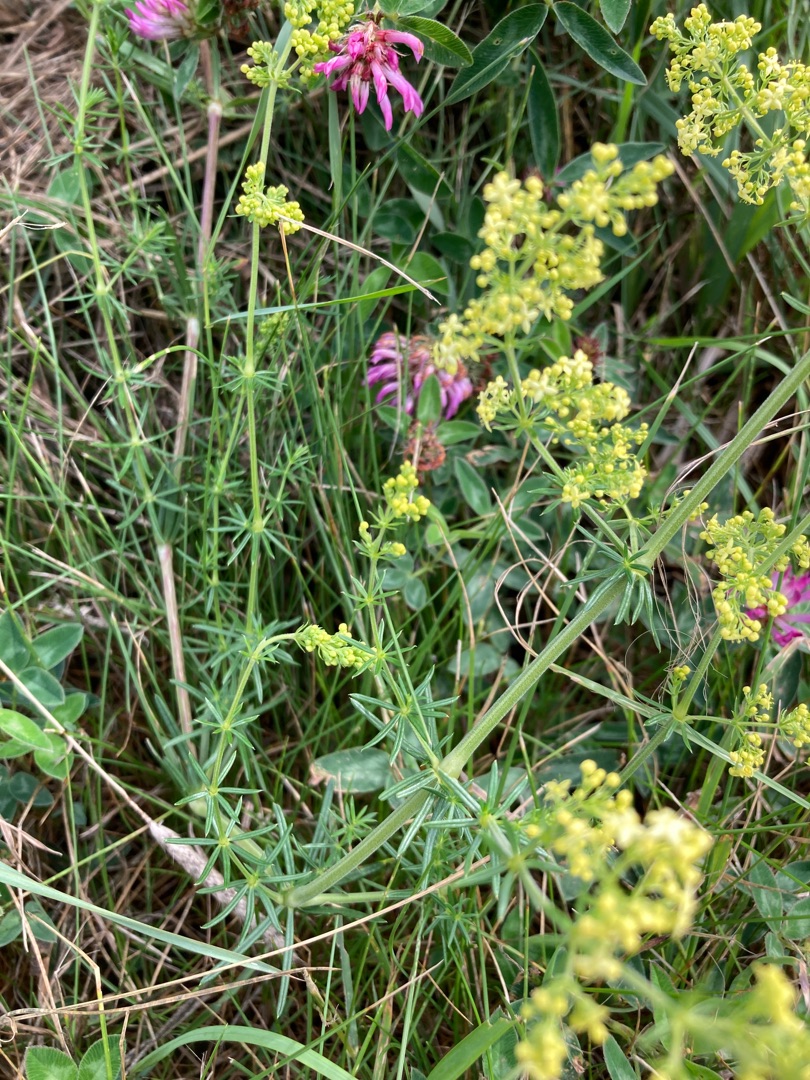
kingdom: Plantae
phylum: Tracheophyta
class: Magnoliopsida
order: Gentianales
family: Rubiaceae
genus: Galium
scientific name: Galium
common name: Hvidgul snerre
